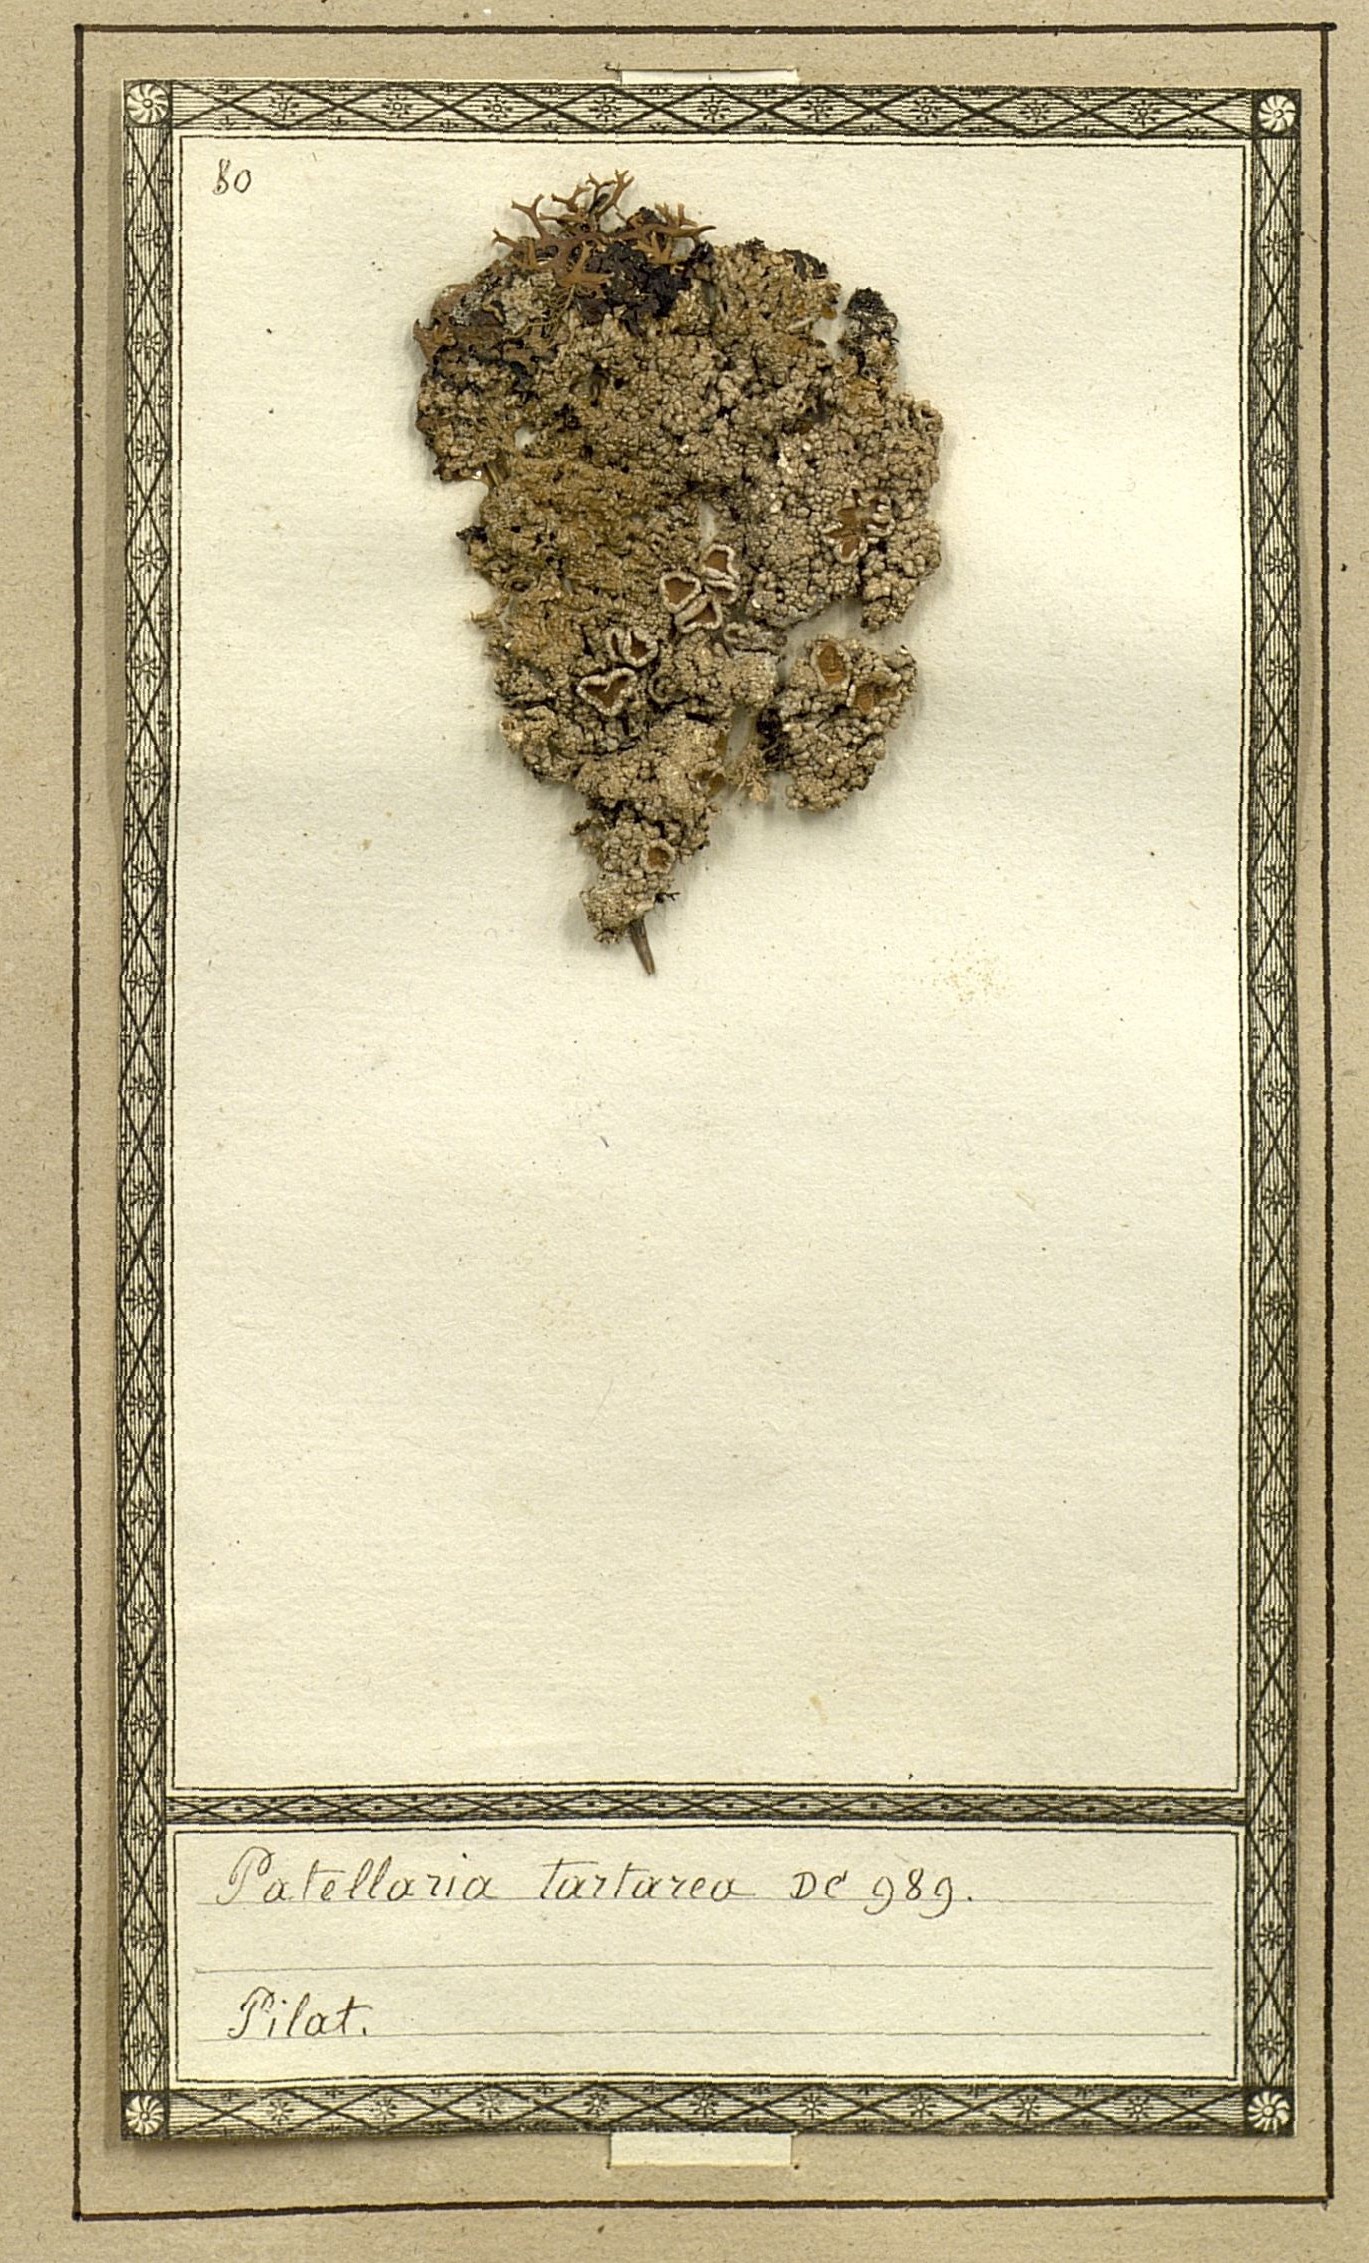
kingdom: Fungi
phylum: Ascomycota
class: Lecanoromycetes
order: Pertusariales
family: Ochrolechiaceae
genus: Ochrolechia
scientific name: Ochrolechia tartarea
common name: Cudbear
